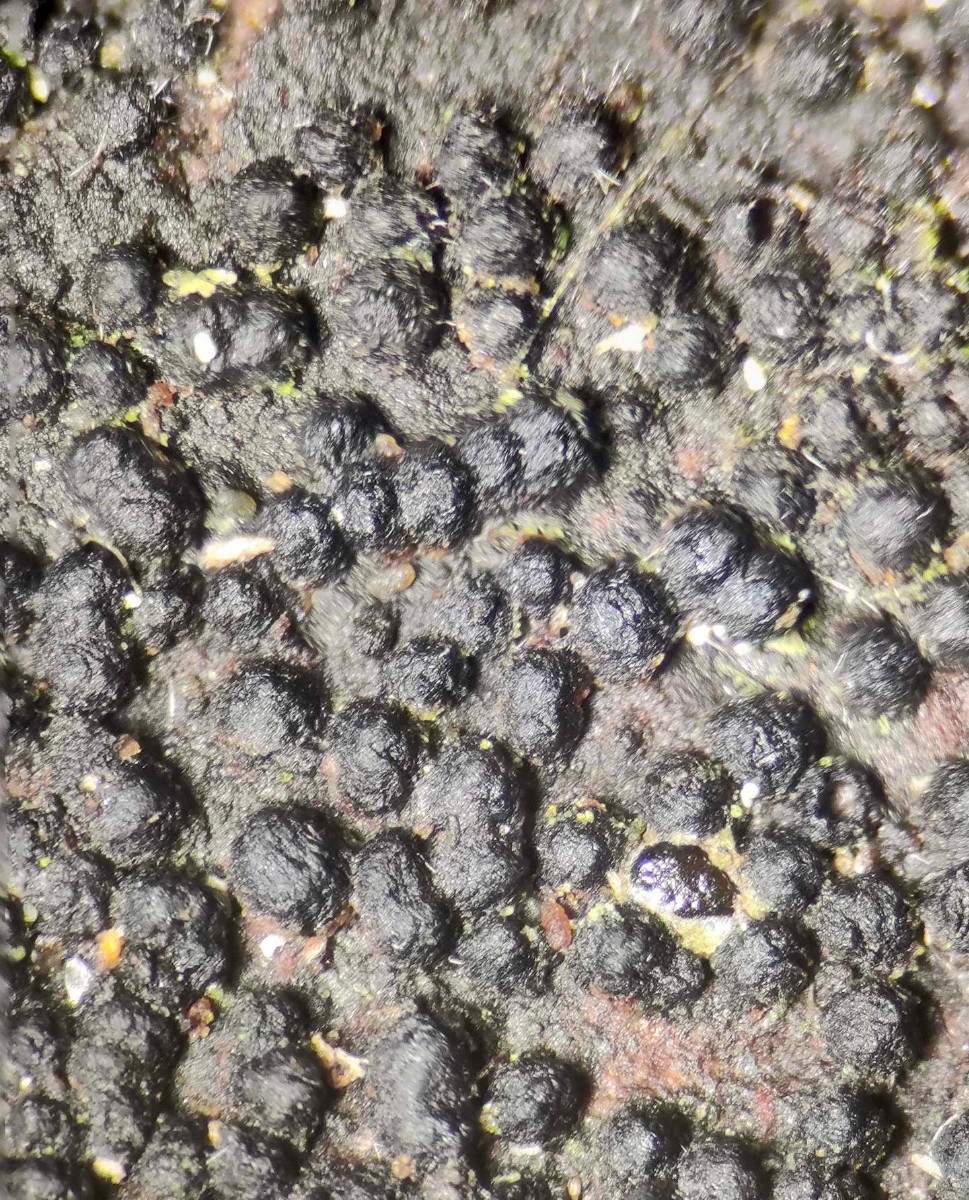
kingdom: Fungi
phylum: Ascomycota
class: Dothideomycetes
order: Pleosporales
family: Melanommataceae
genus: Melanomma
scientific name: Melanomma pulvis-pyrius
